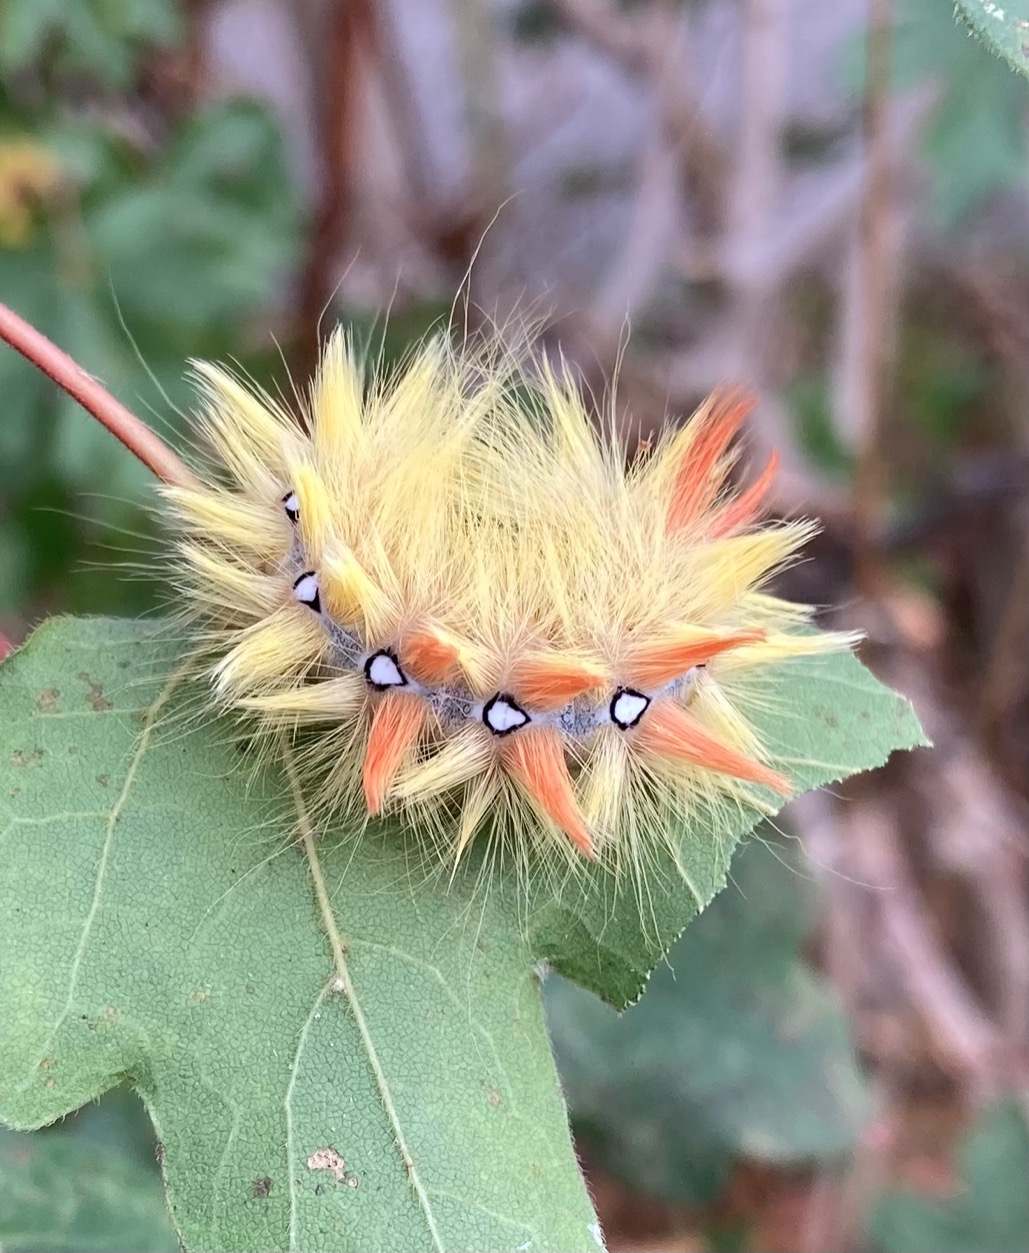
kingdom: Animalia
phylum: Arthropoda
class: Insecta
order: Lepidoptera
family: Noctuidae
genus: Acronicta
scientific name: Acronicta aceris
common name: Ahornugle
